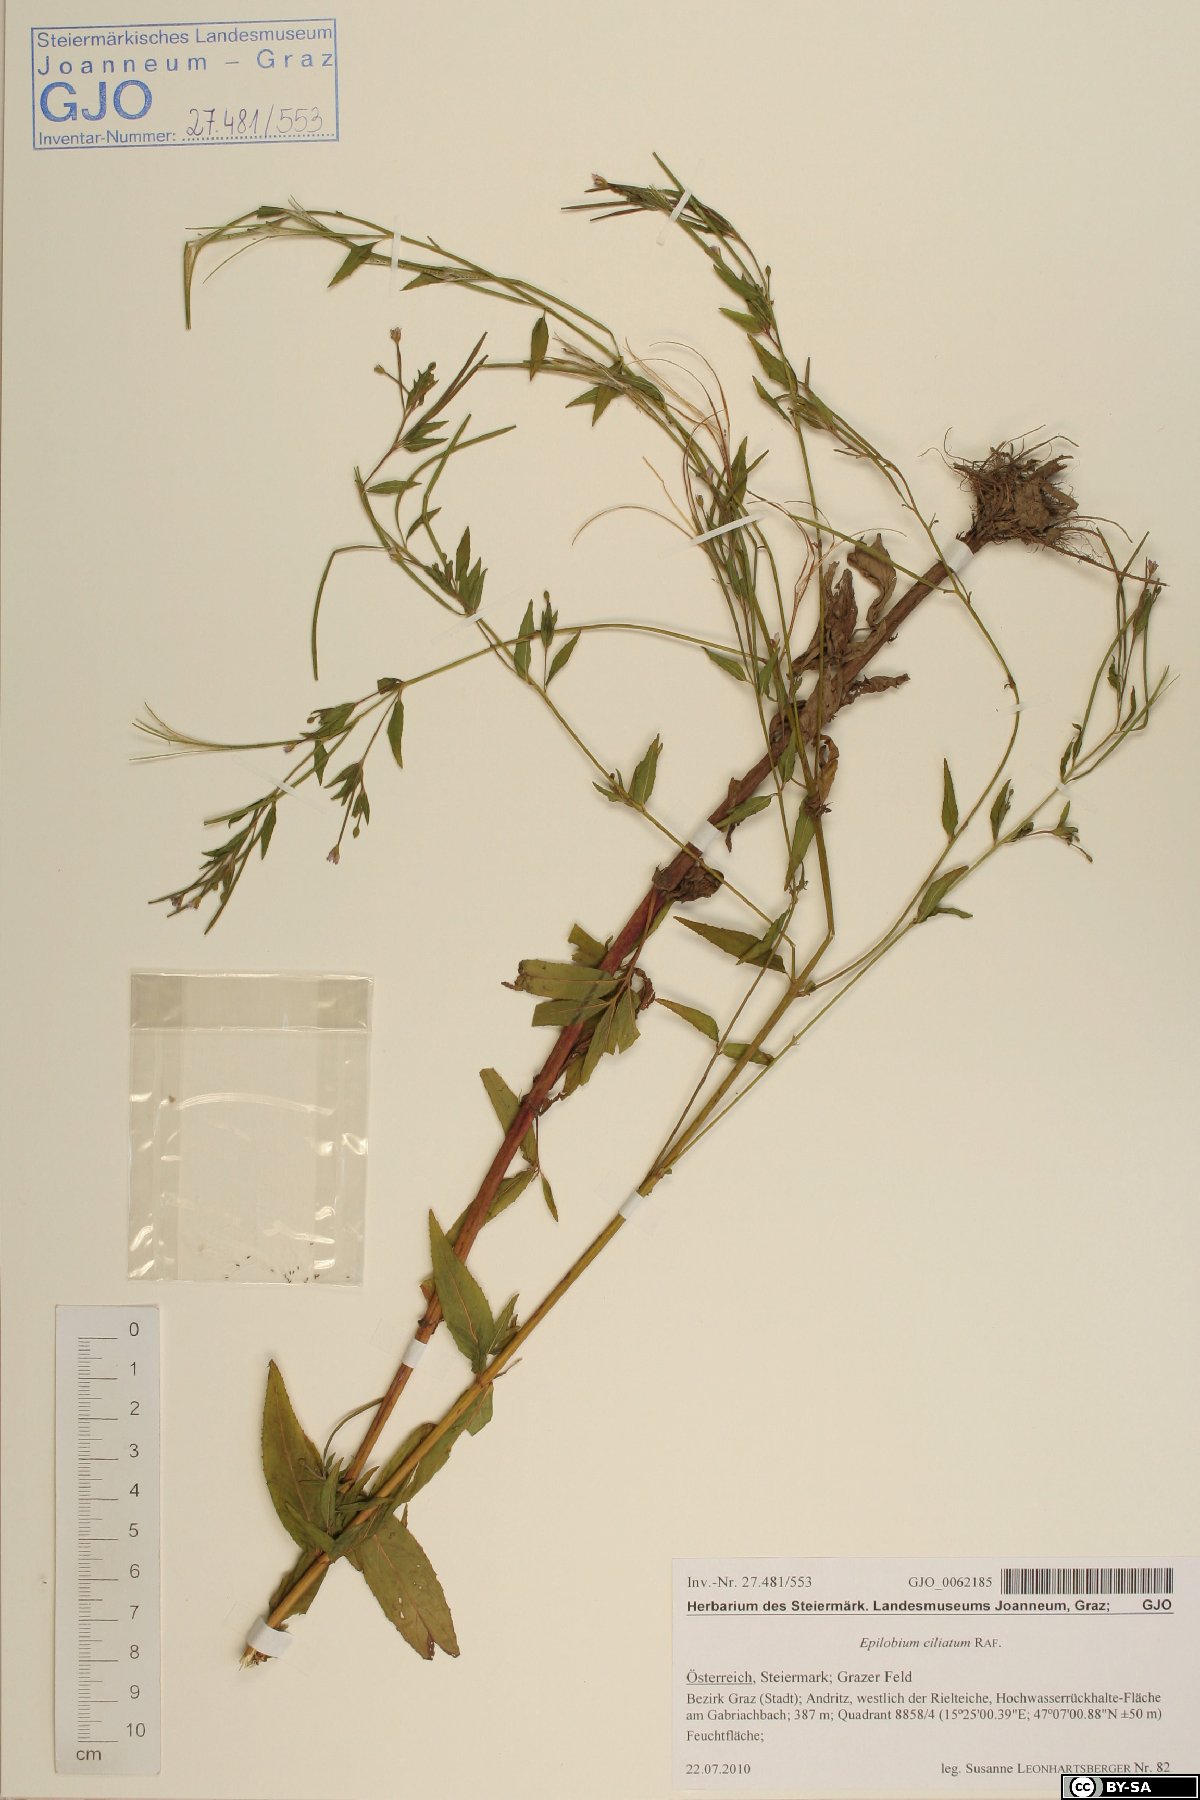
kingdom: Plantae
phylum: Tracheophyta
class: Magnoliopsida
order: Myrtales
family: Onagraceae
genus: Epilobium
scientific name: Epilobium ciliatum
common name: American willowherb
